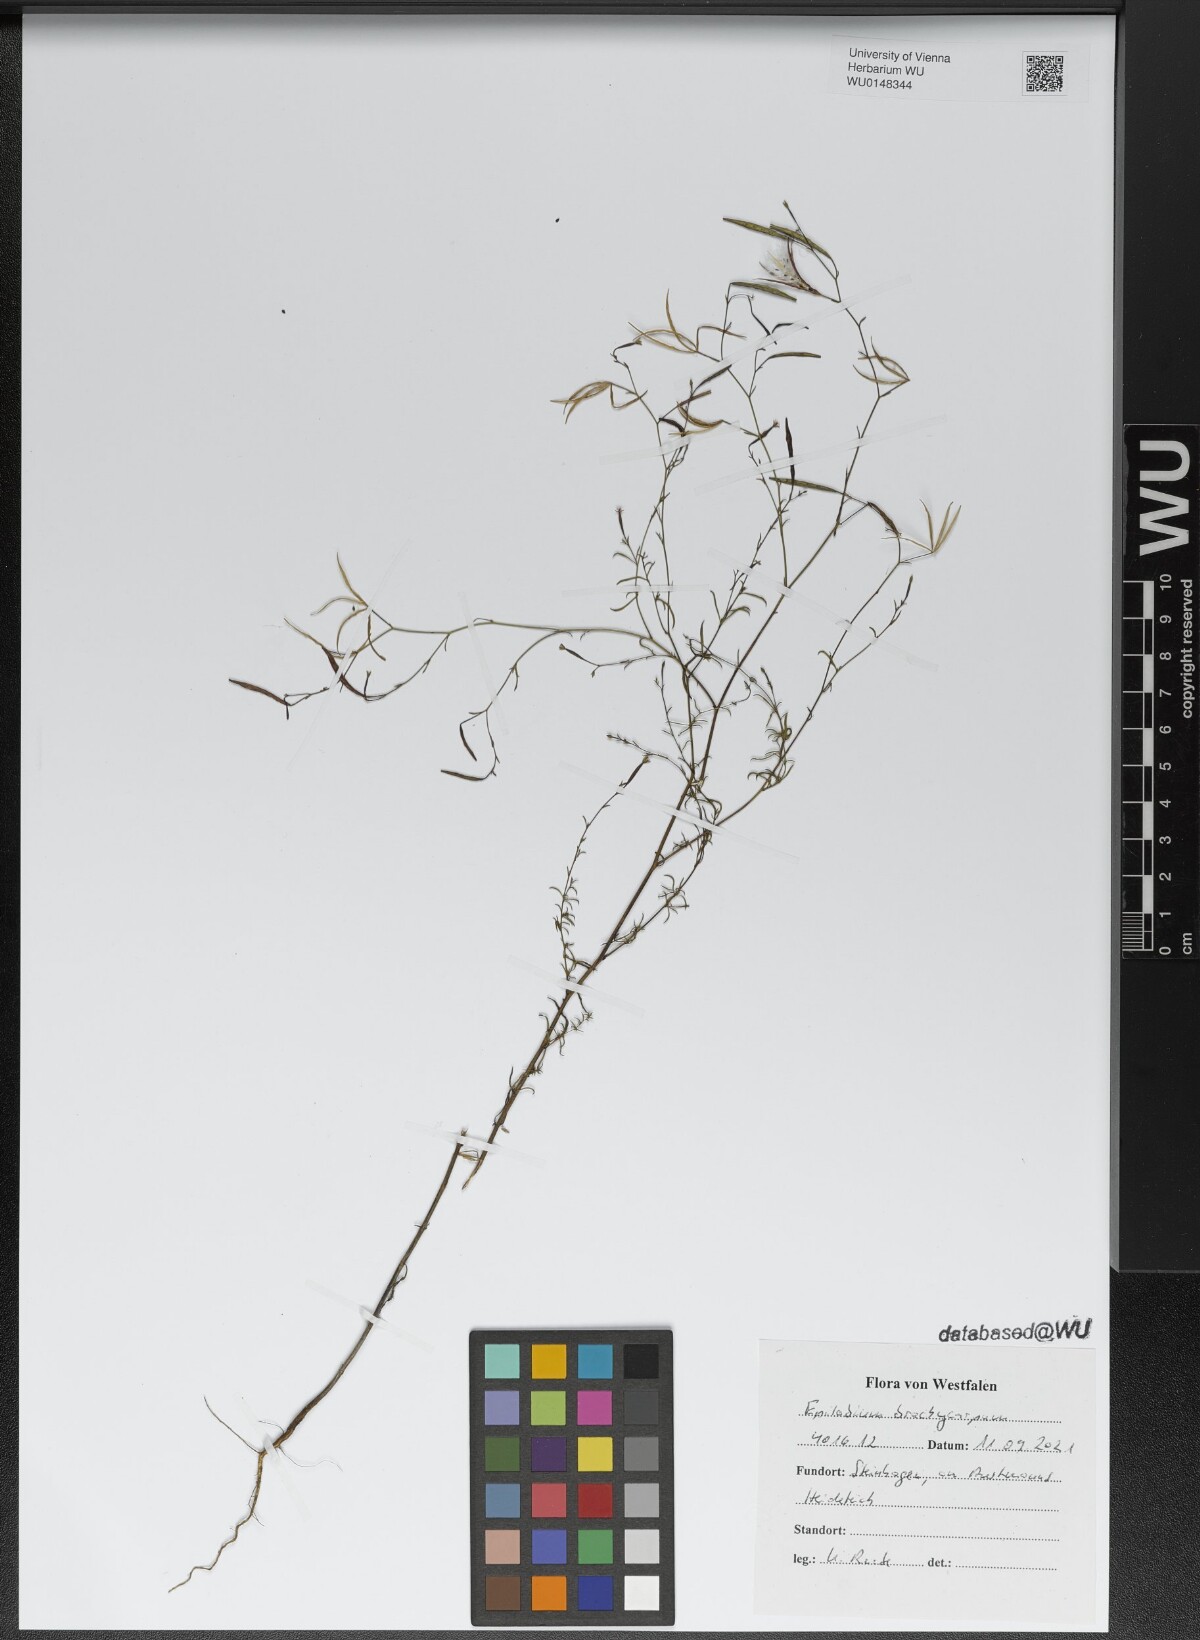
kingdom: Plantae
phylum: Tracheophyta
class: Magnoliopsida
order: Myrtales
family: Onagraceae
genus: Epilobium
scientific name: Epilobium brachycarpum
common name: Annual willowherb
